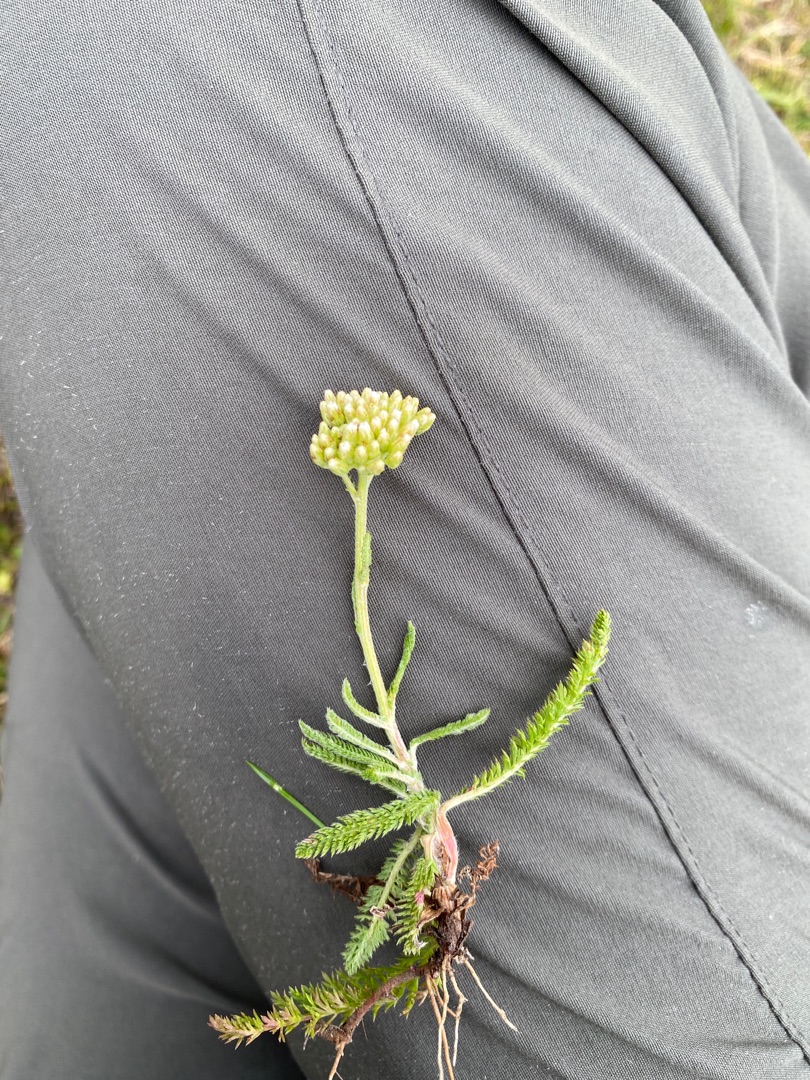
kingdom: Plantae
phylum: Tracheophyta
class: Magnoliopsida
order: Asterales
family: Asteraceae
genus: Achillea
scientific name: Achillea millefolium
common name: Almindelig røllike
